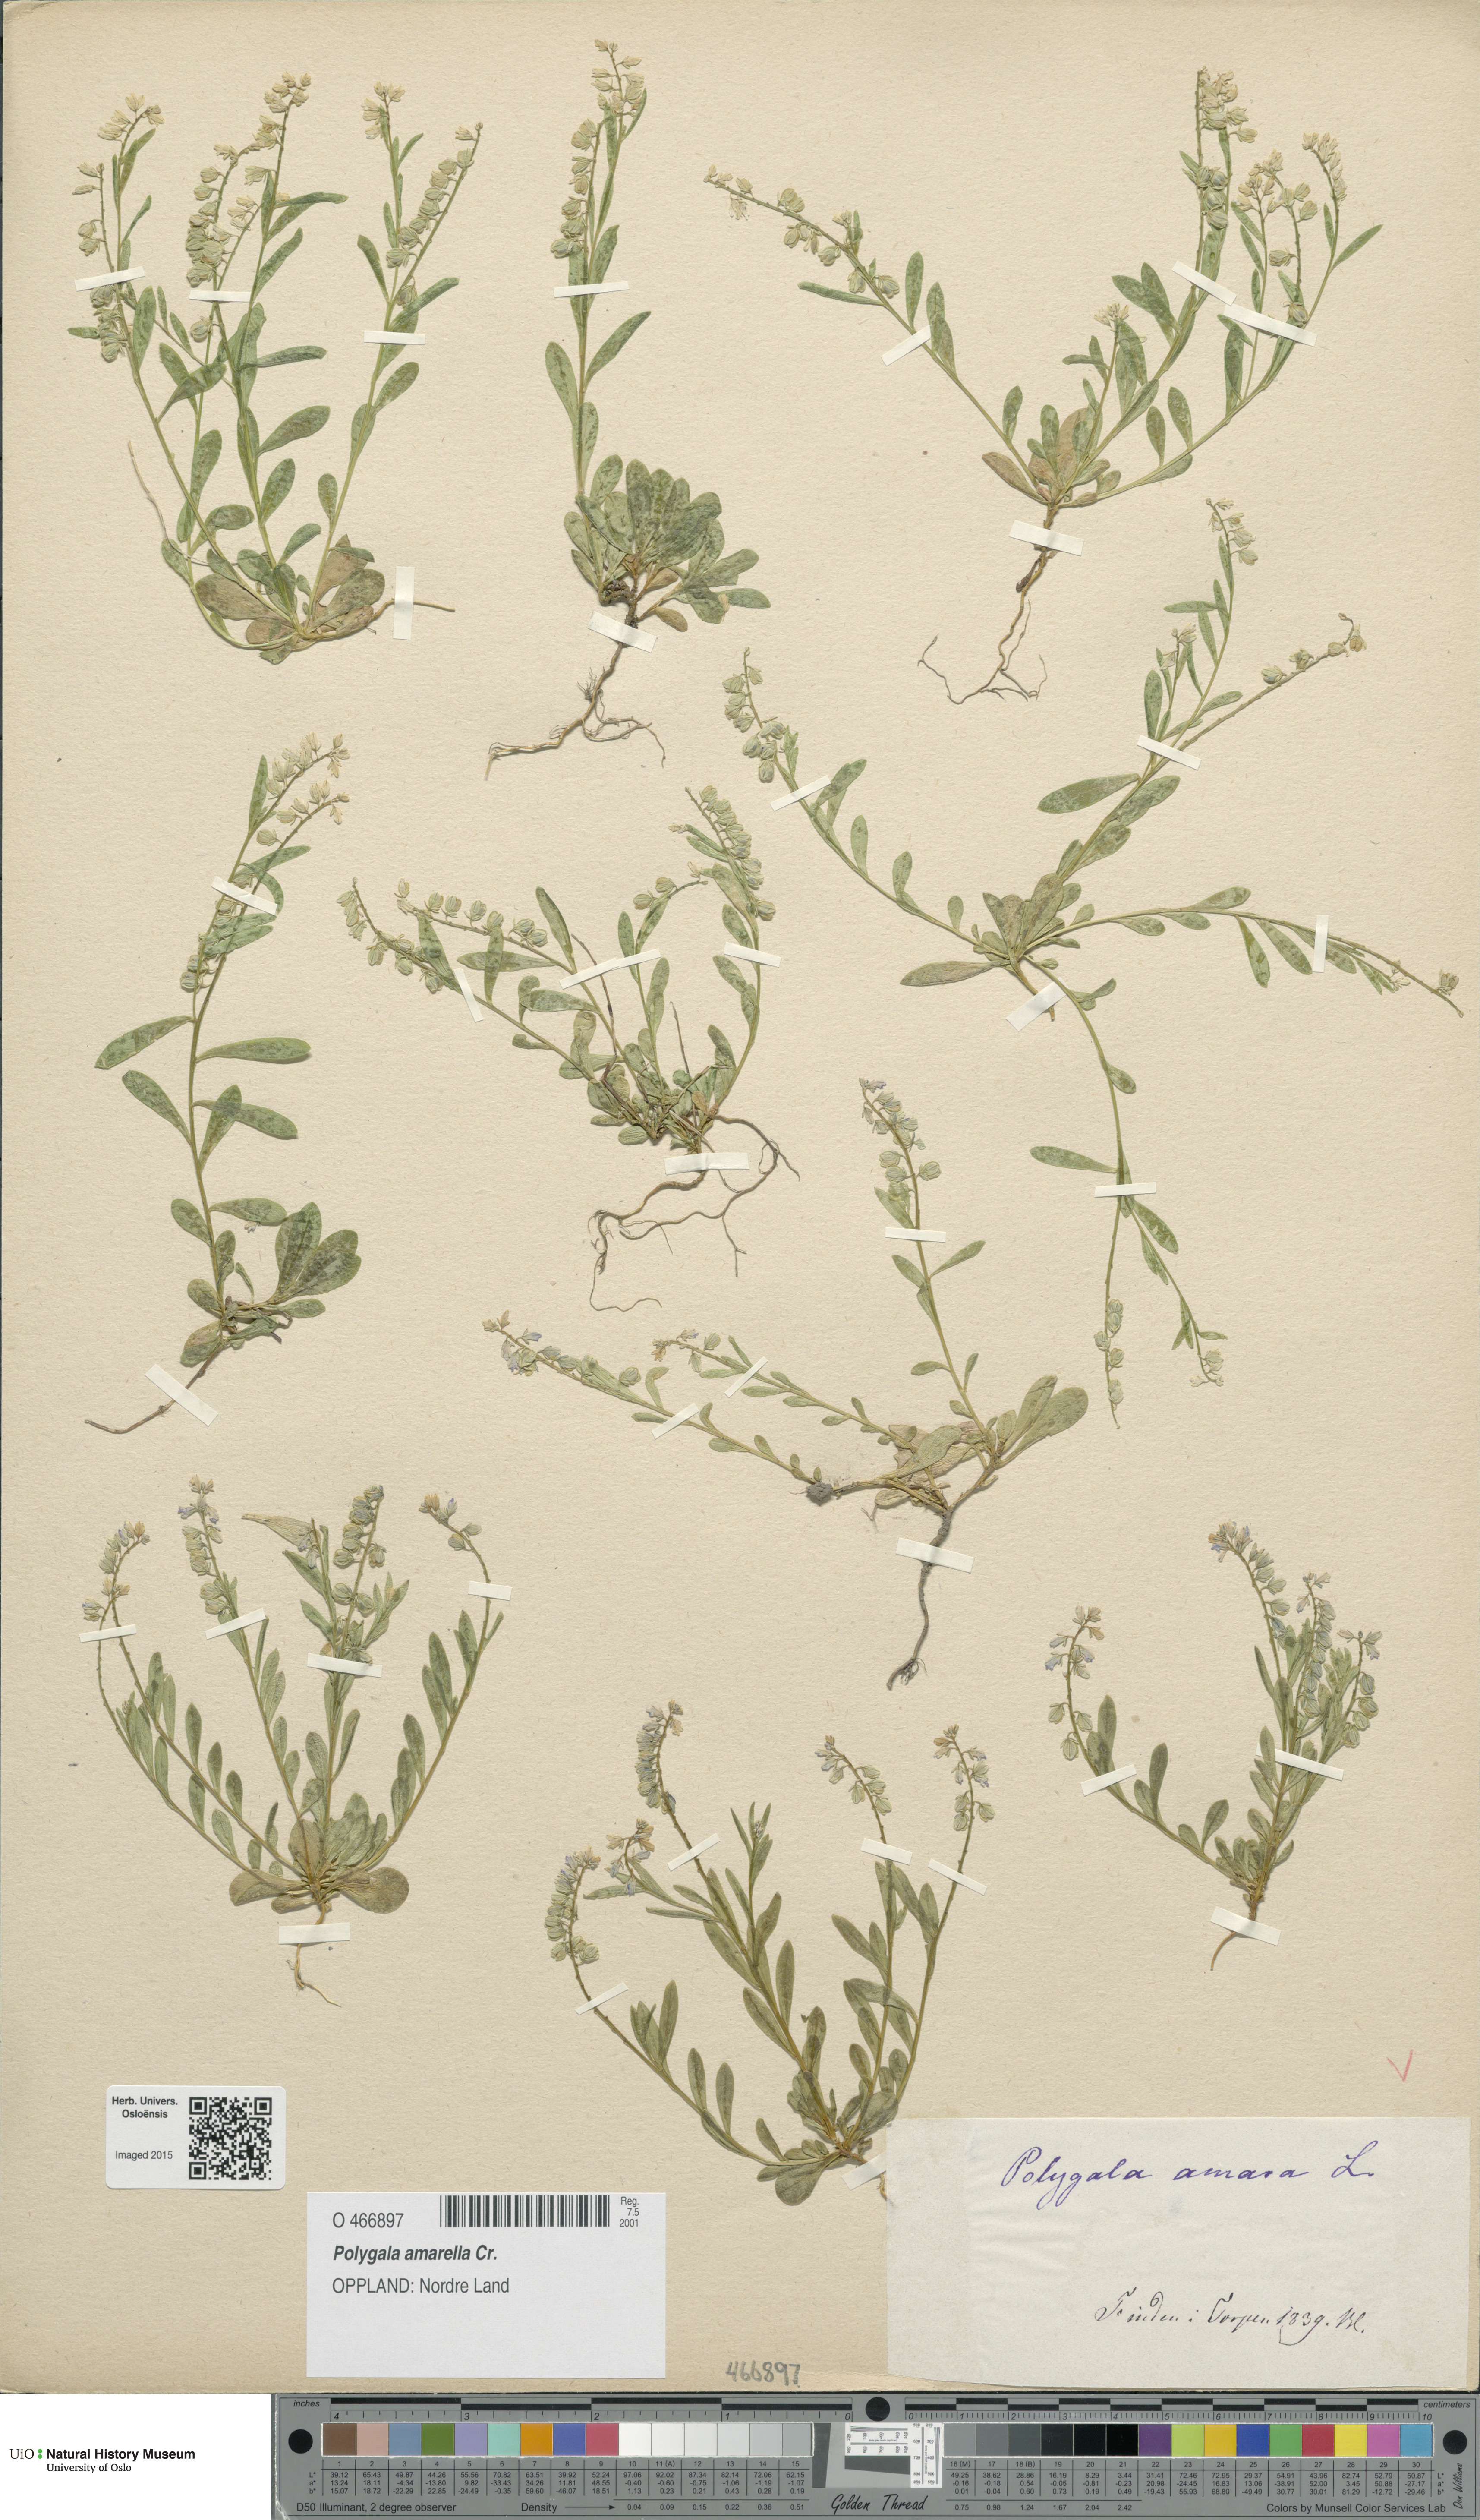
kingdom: Plantae
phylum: Tracheophyta
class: Magnoliopsida
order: Fabales
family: Polygalaceae
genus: Polygala
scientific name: Polygala amarella
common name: Dwarf milkwort
